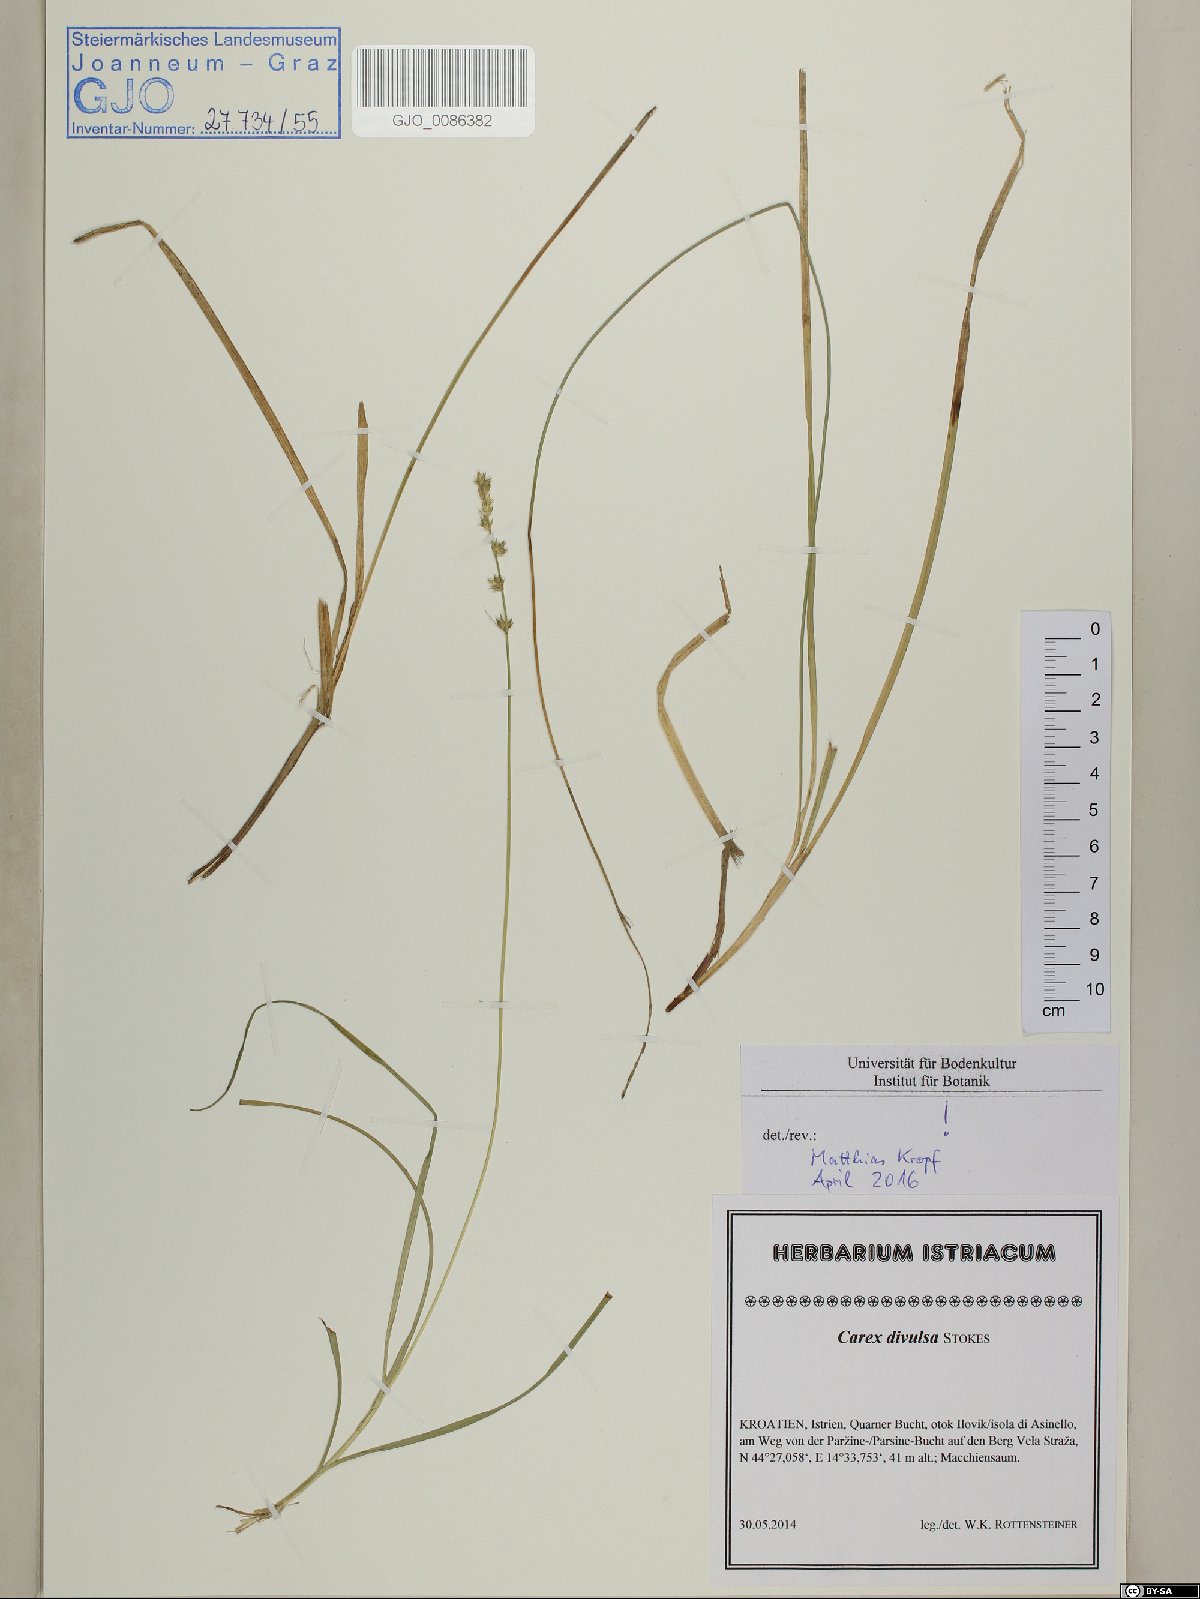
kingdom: Plantae
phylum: Tracheophyta
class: Liliopsida
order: Poales
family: Cyperaceae
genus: Carex
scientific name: Carex divulsa
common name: Grassland sedge
